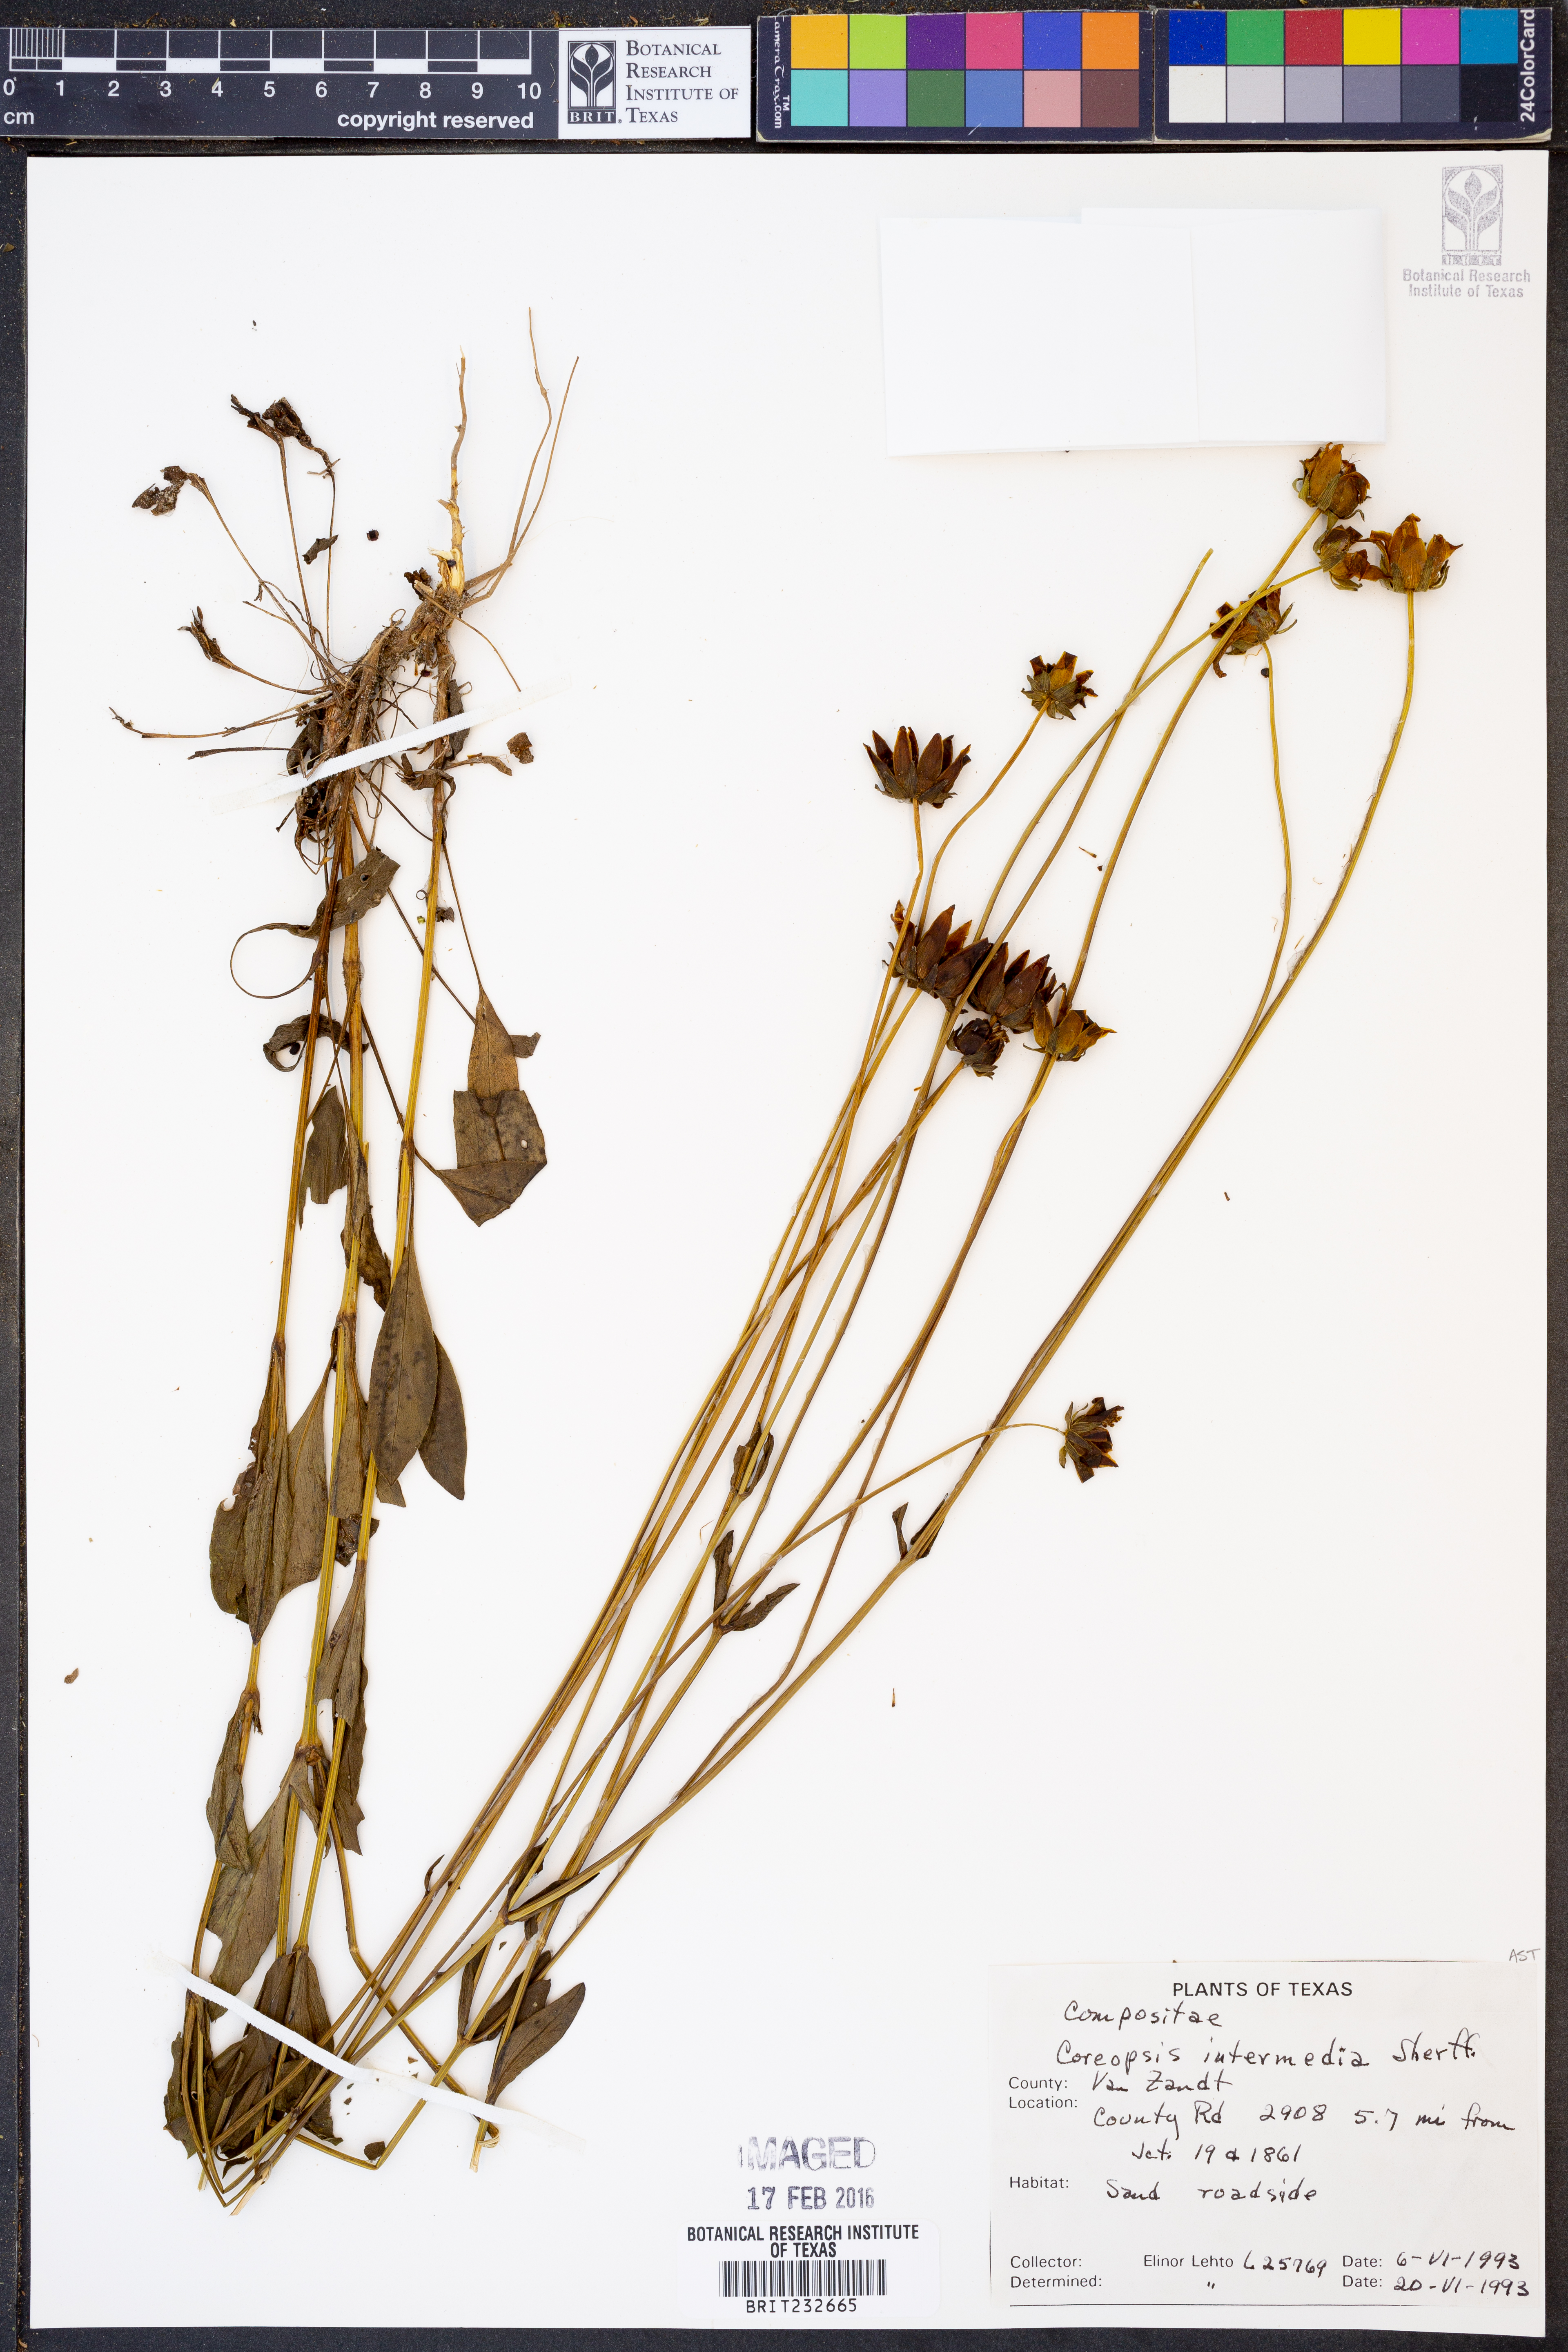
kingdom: Plantae
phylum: Tracheophyta
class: Magnoliopsida
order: Asterales
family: Asteraceae
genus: Coreopsis
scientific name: Coreopsis intermedia
